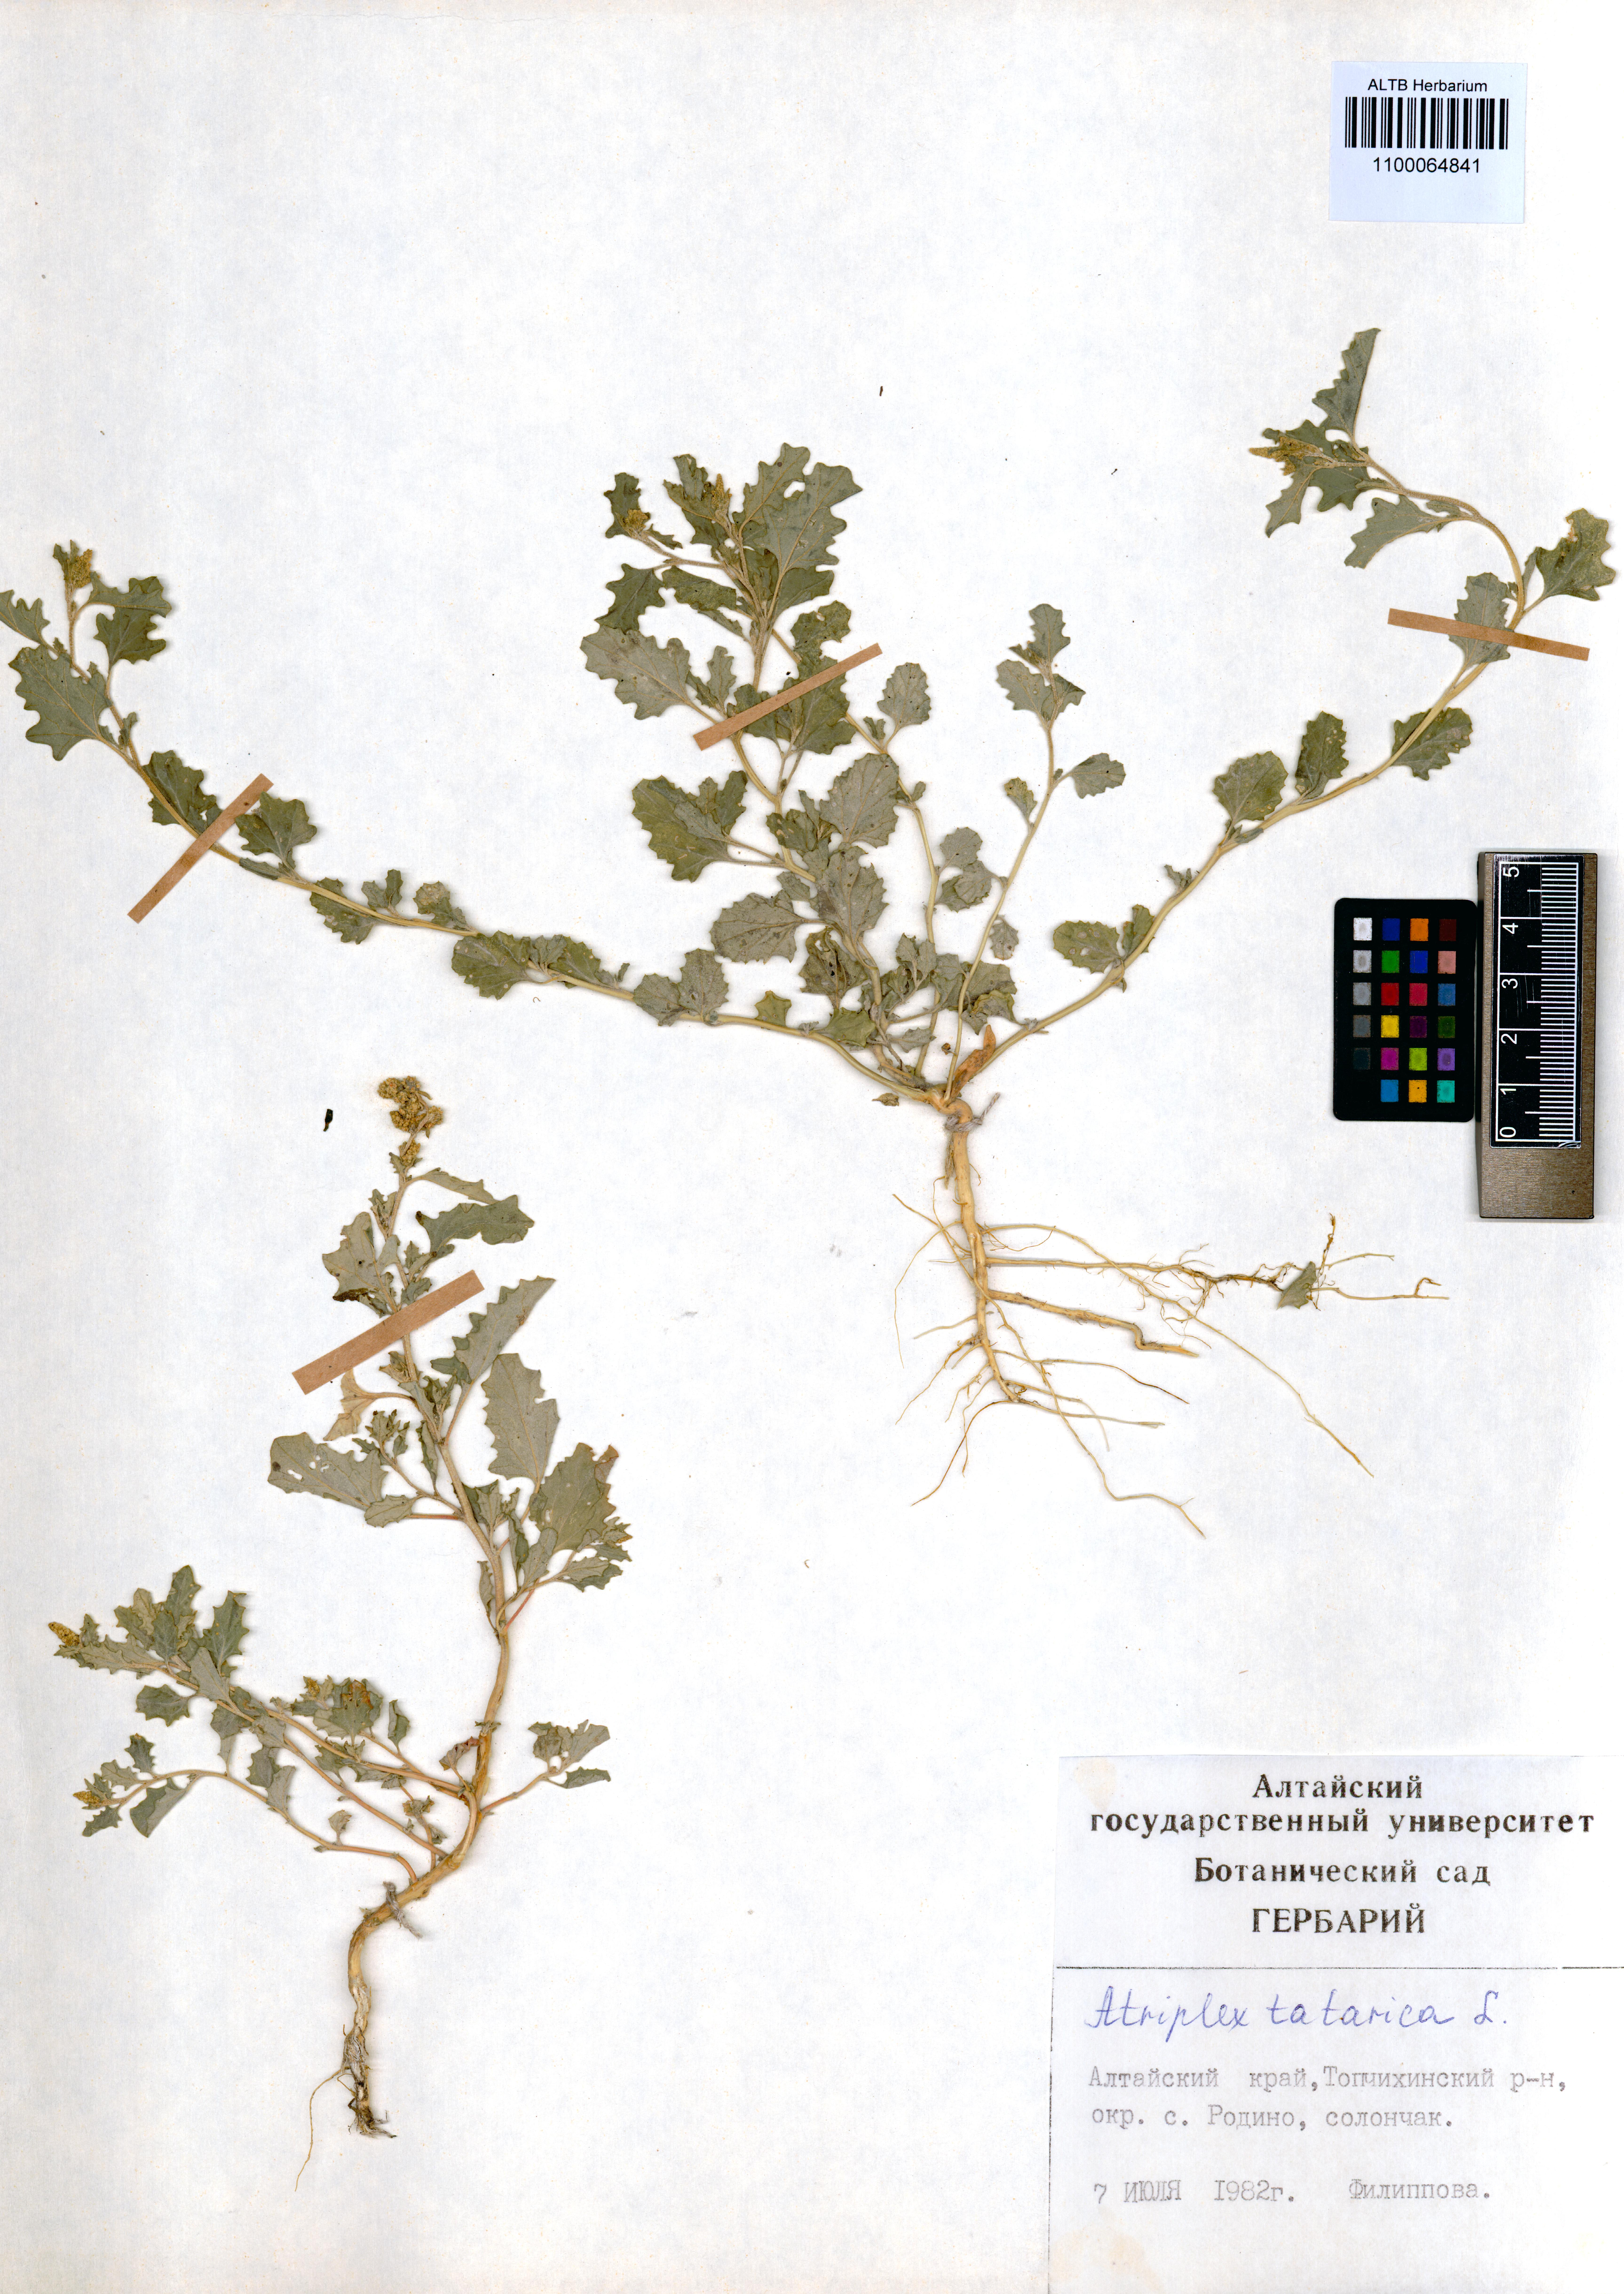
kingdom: Plantae
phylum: Tracheophyta
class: Magnoliopsida
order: Caryophyllales
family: Amaranthaceae
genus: Atriplex
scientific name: Atriplex tatarica
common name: Tatarian orache
